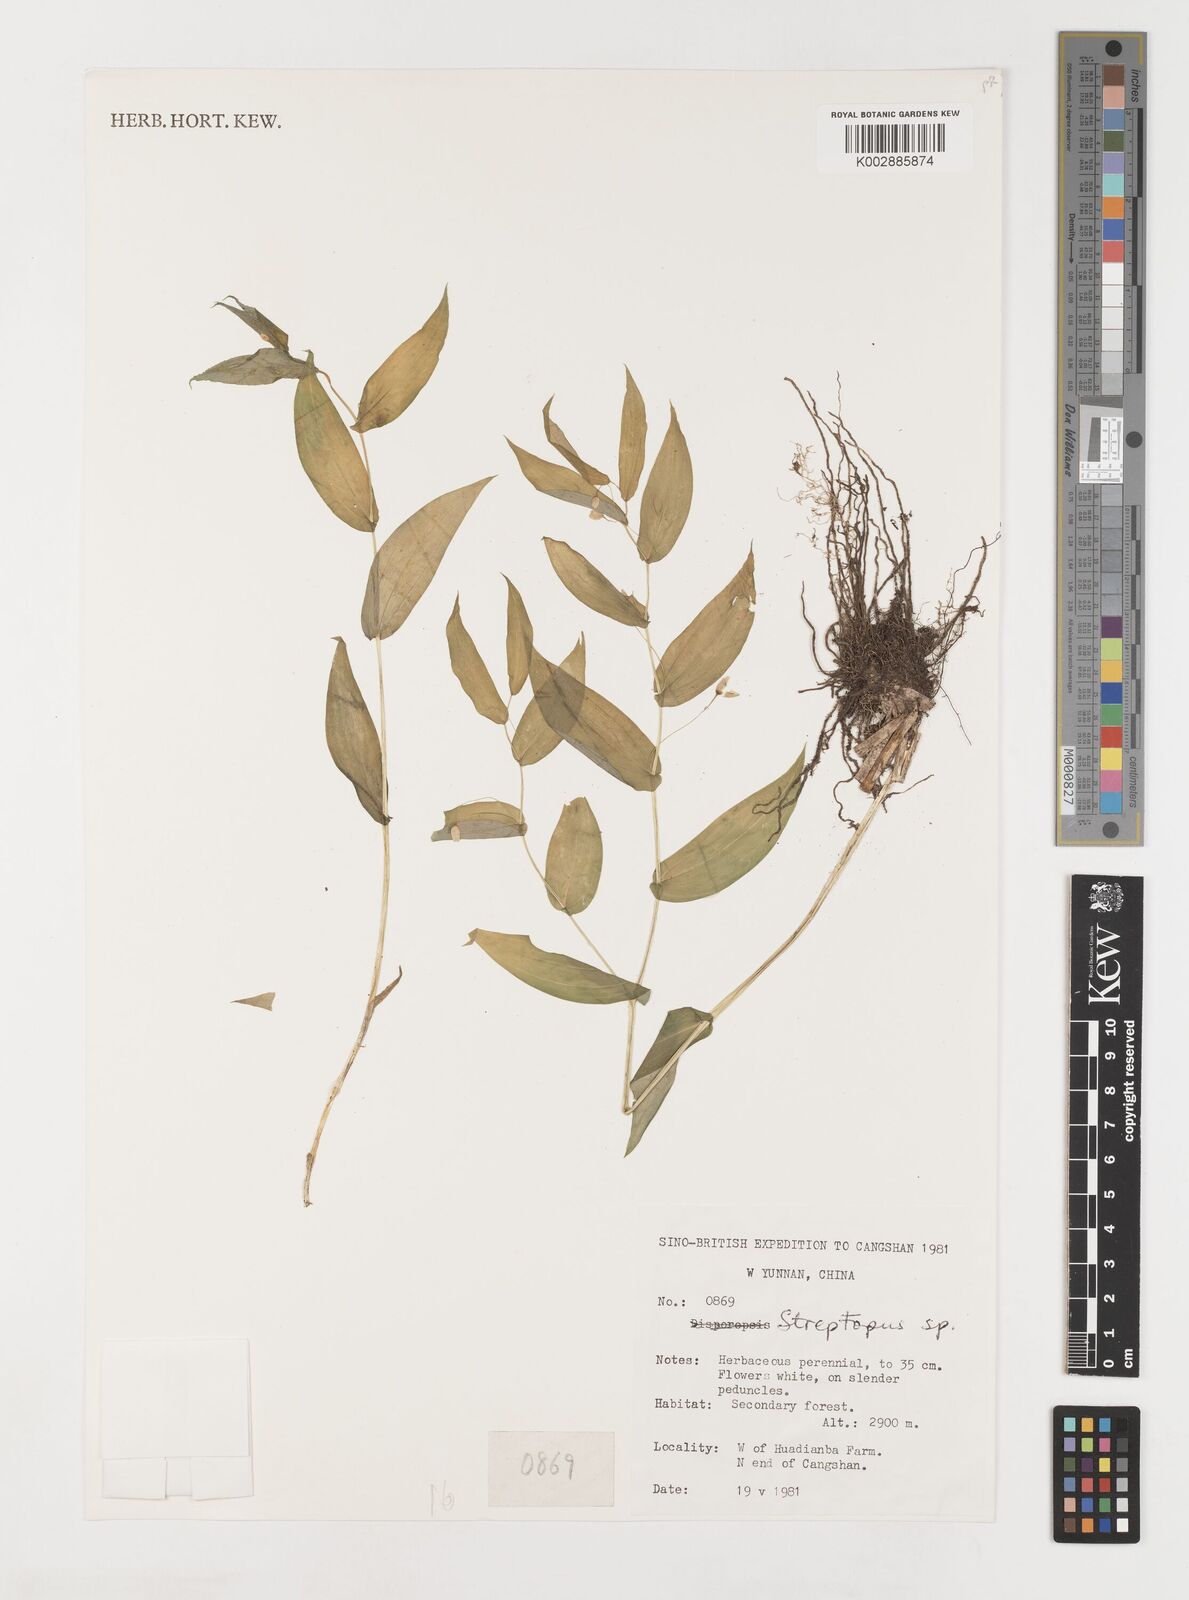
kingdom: Plantae
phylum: Tracheophyta
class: Liliopsida
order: Liliales
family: Liliaceae
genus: Streptopus
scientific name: Streptopus
